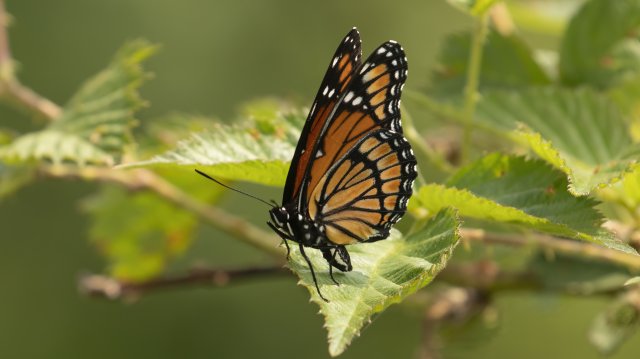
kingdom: Animalia
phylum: Arthropoda
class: Insecta
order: Lepidoptera
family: Nymphalidae
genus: Limenitis
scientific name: Limenitis archippus
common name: Viceroy
